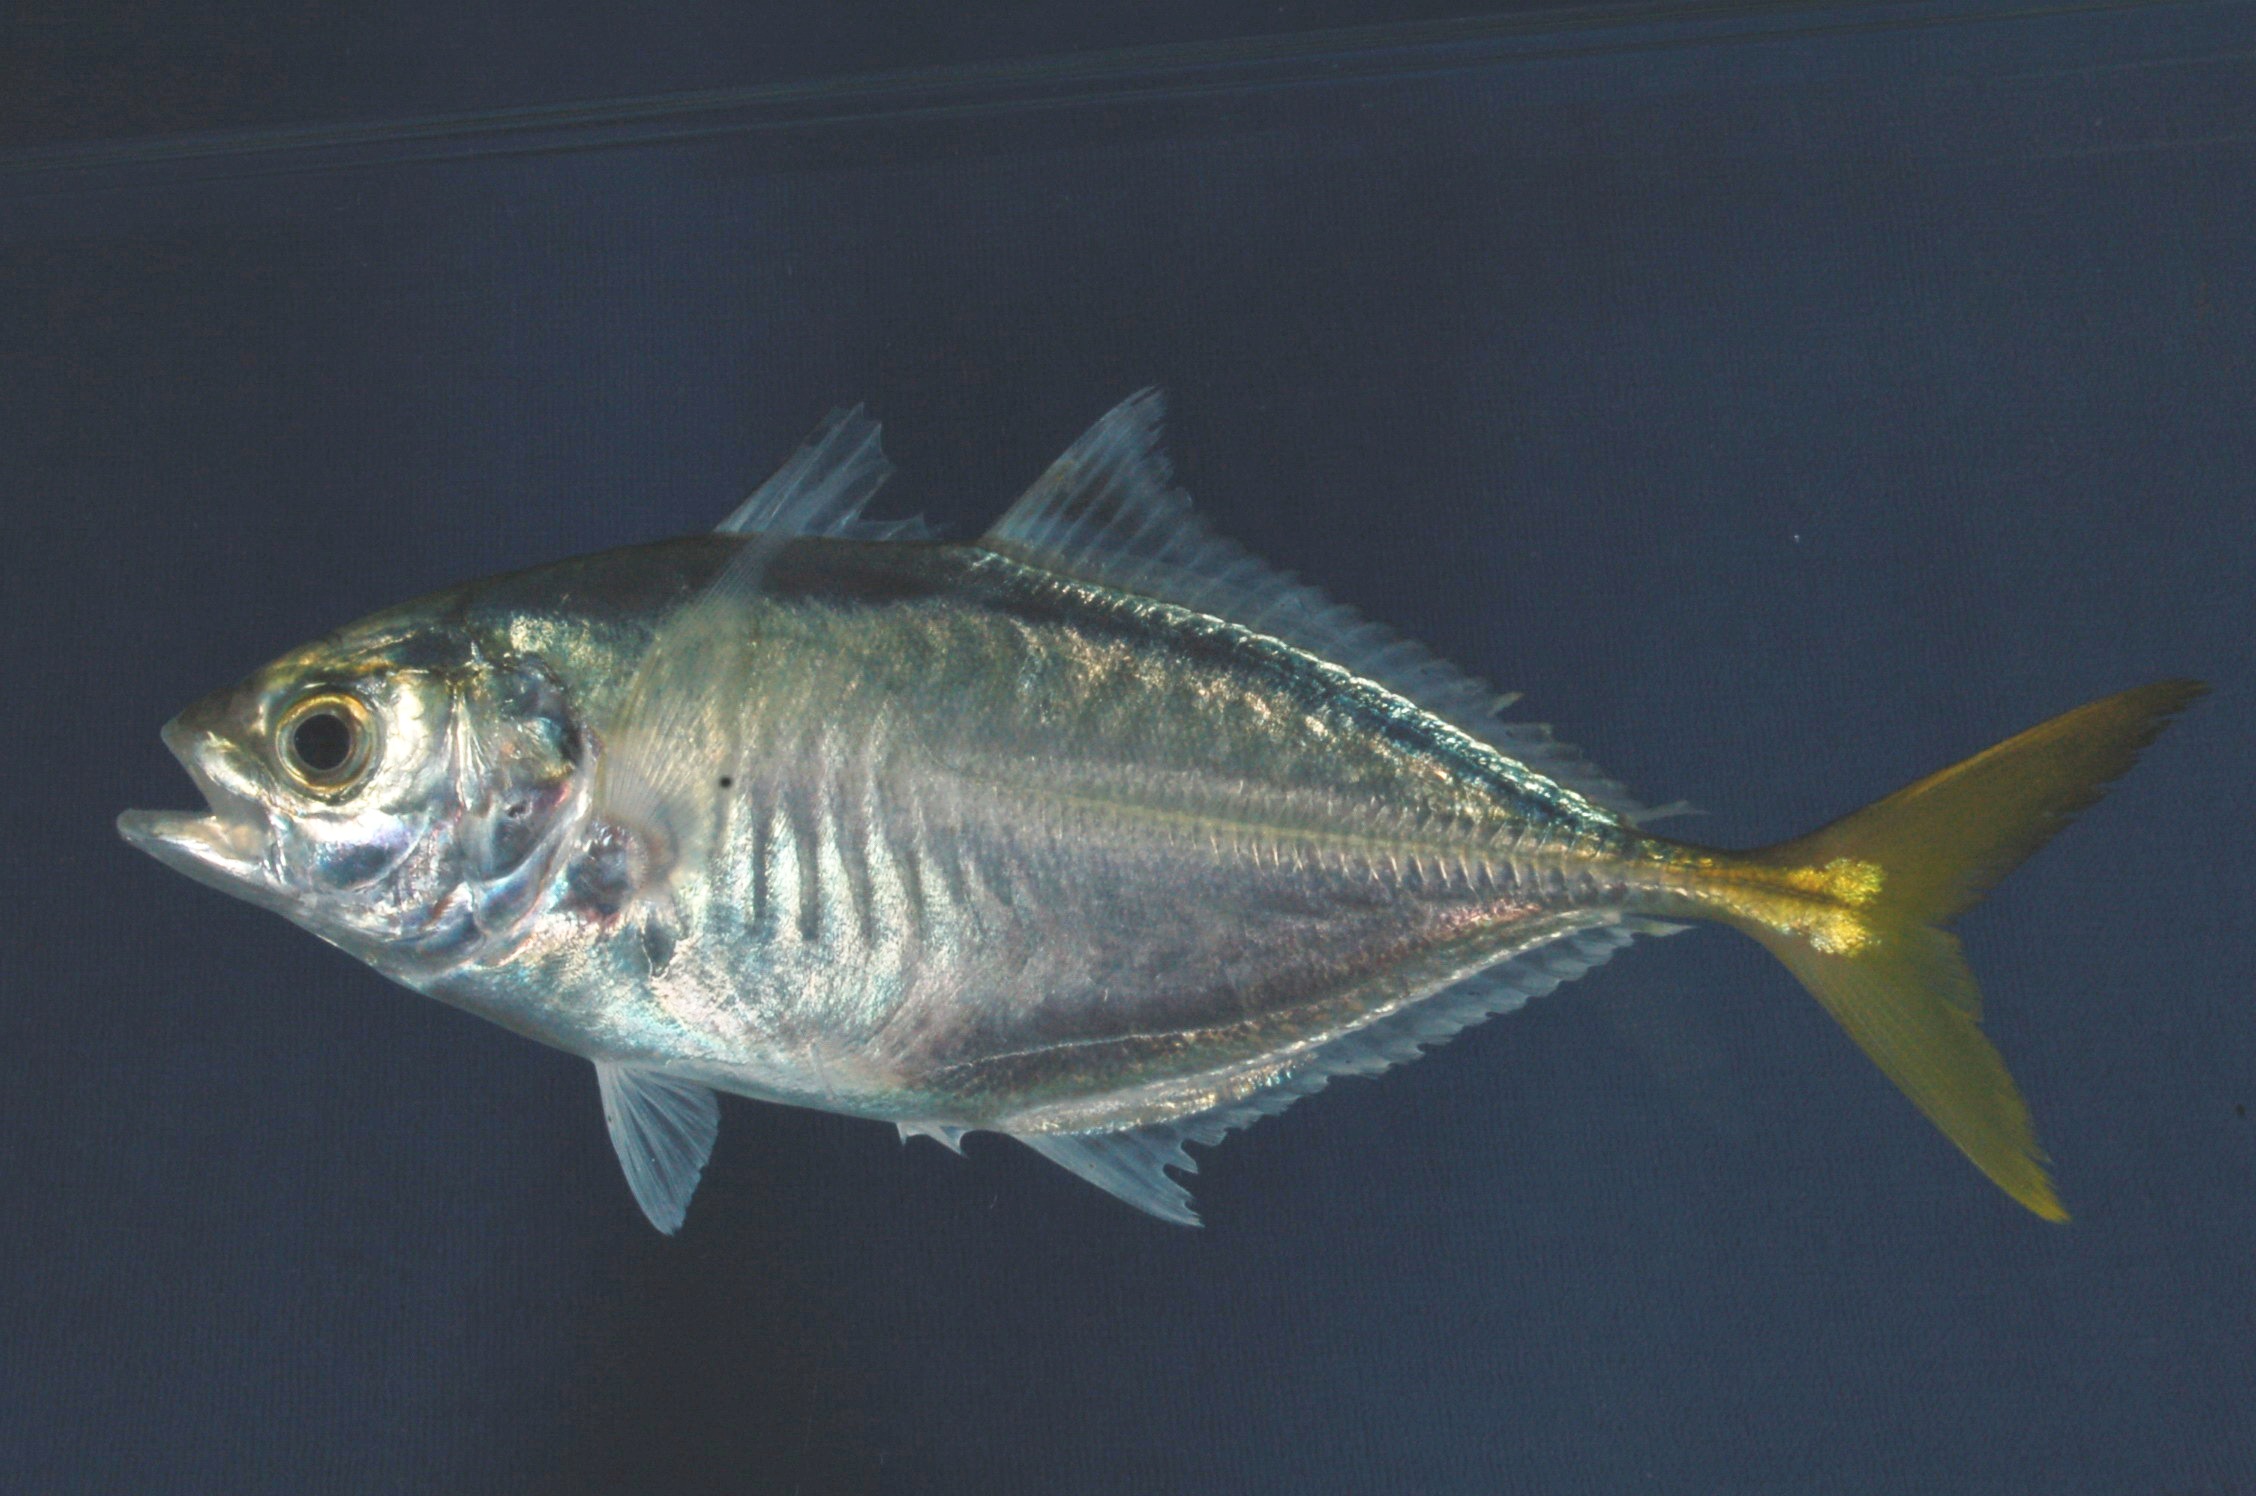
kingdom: Animalia
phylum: Chordata
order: Perciformes
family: Carangidae
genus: Atule
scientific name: Atule mate
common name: Yellowtail scad
